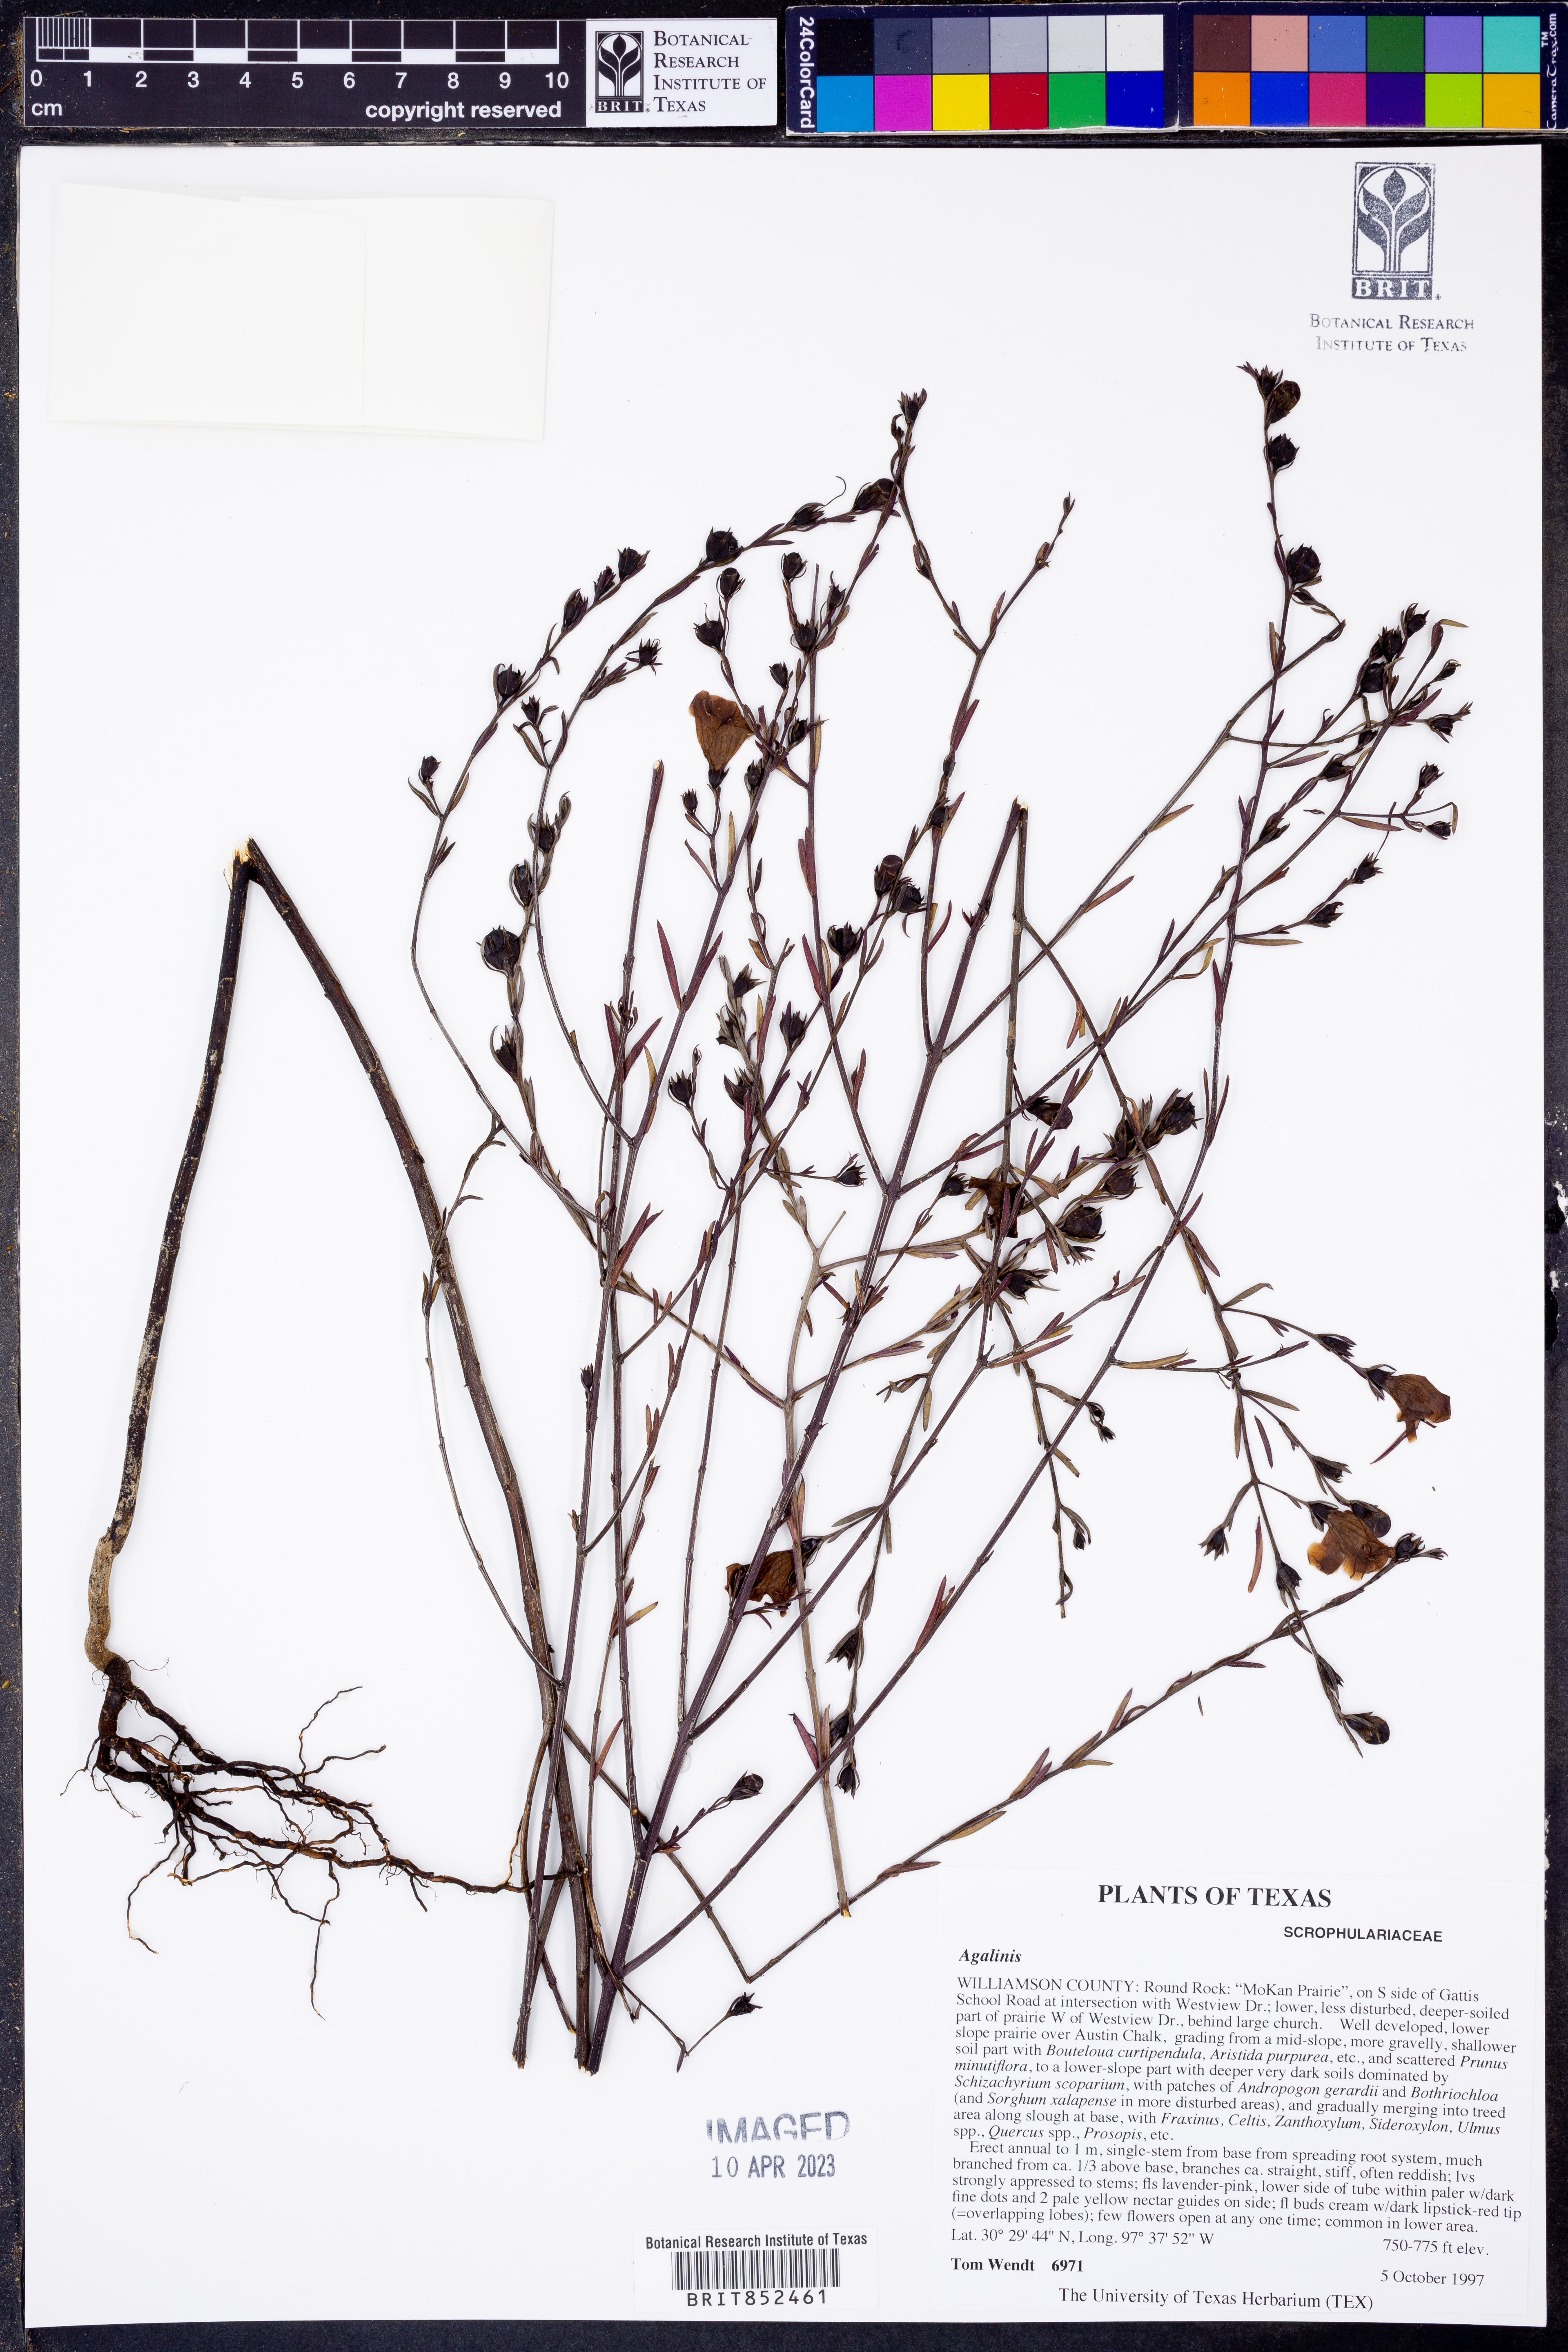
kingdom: Plantae
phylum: Tracheophyta
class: Magnoliopsida
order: Lamiales
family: Orobanchaceae
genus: Agalinis
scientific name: Agalinis
